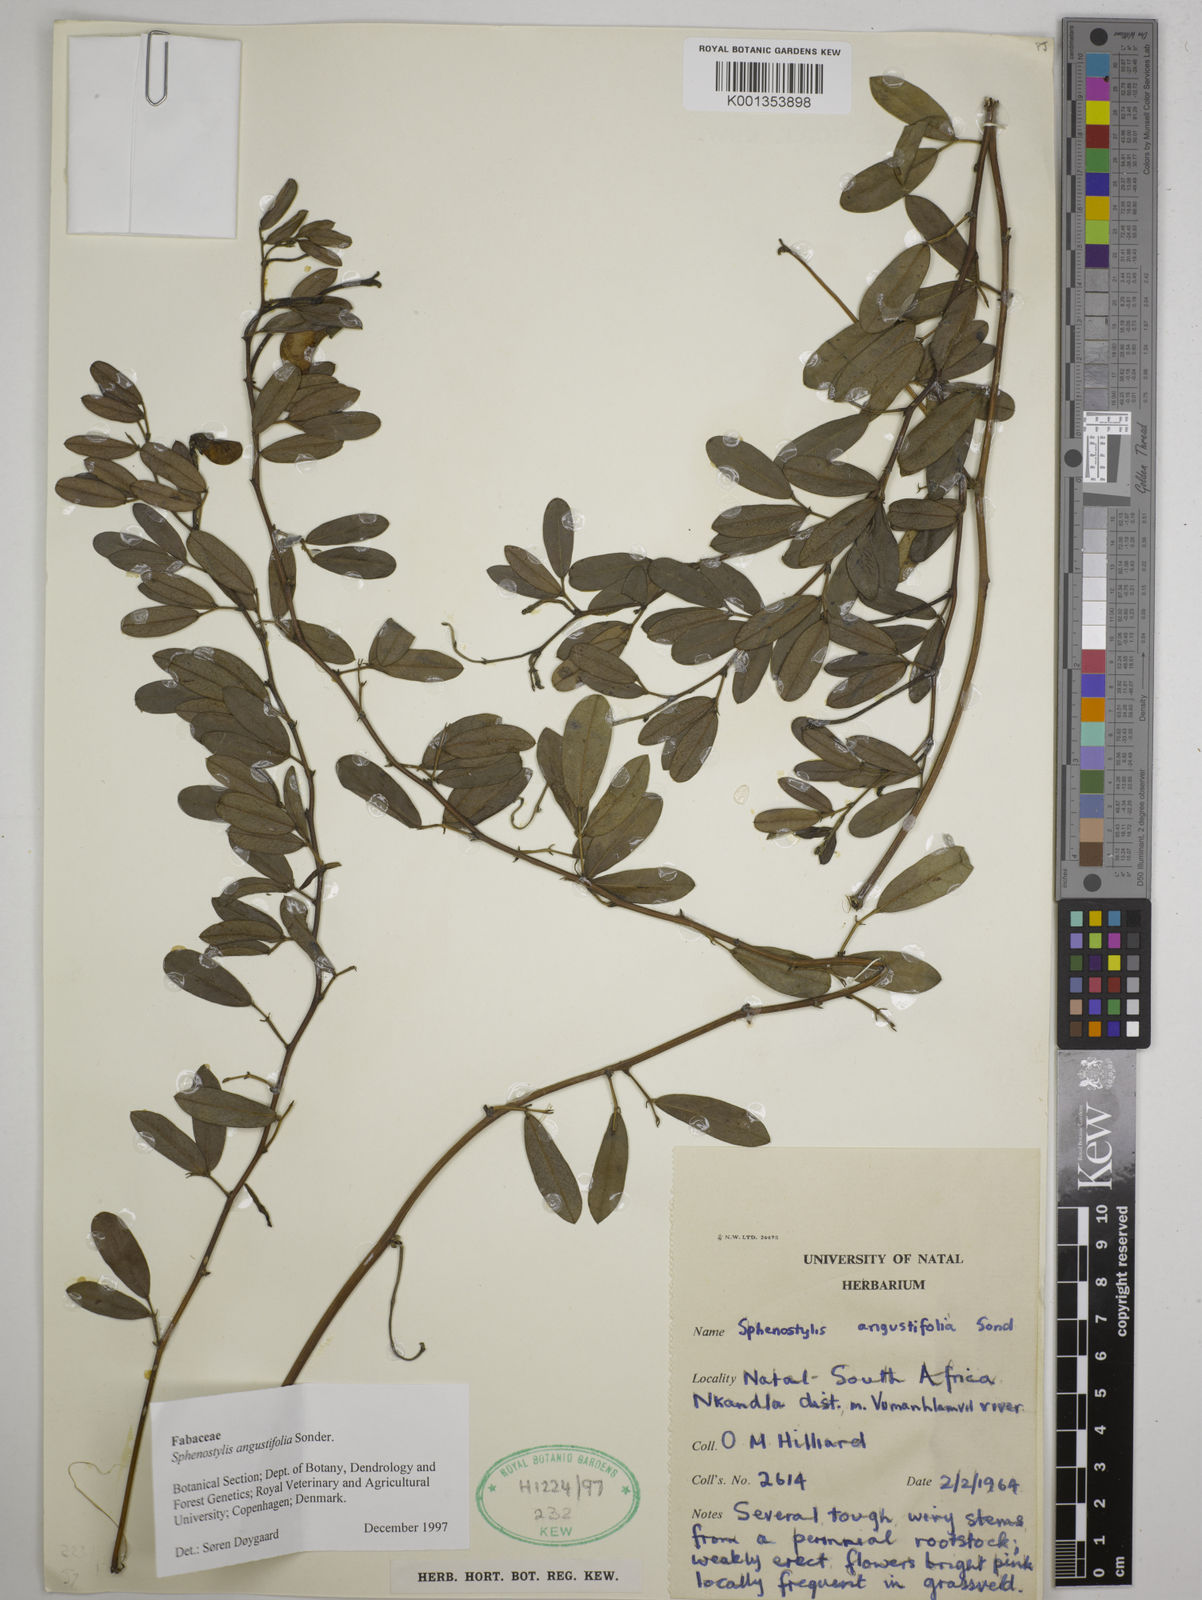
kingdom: Plantae
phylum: Tracheophyta
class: Magnoliopsida
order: Fabales
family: Fabaceae
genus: Sphenostylis
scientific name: Sphenostylis angustifolia
